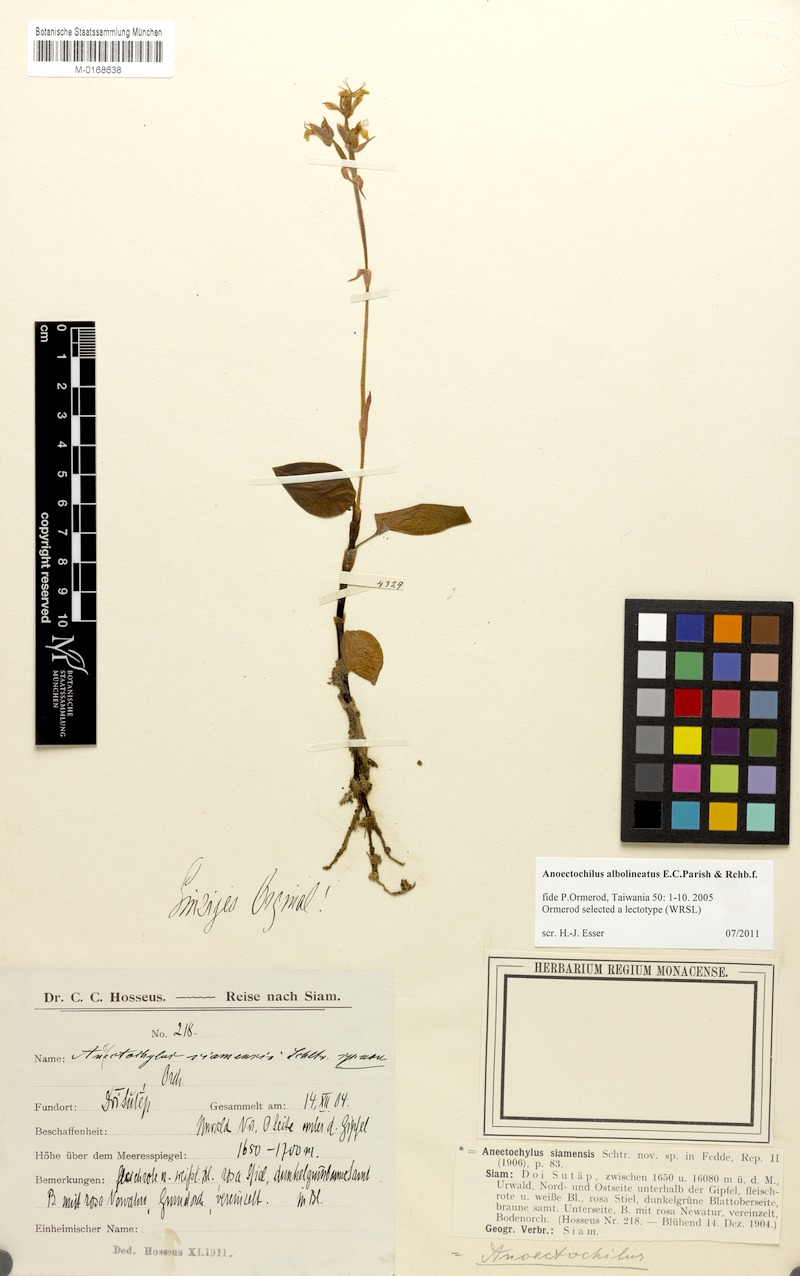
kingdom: Plantae
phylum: Tracheophyta
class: Liliopsida
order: Asparagales
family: Orchidaceae
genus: Anoectochilus
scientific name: Anoectochilus albolineatus
